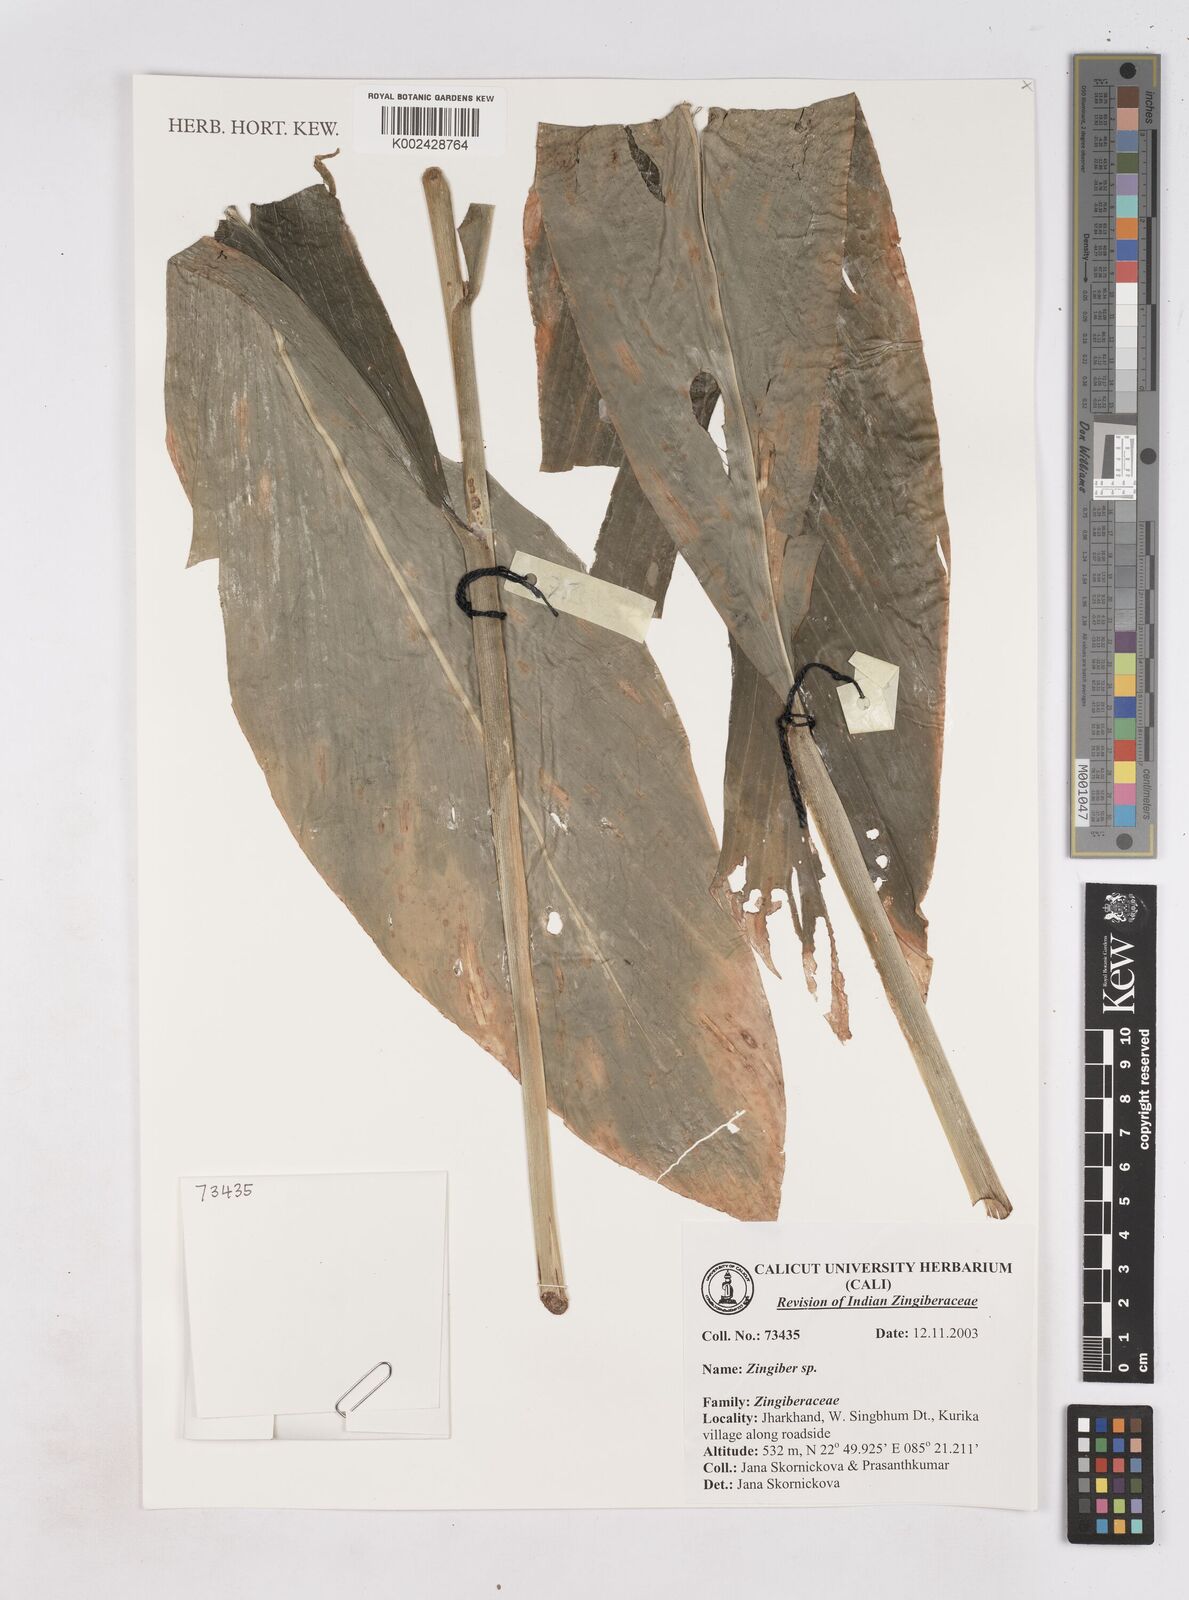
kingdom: Plantae
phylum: Tracheophyta
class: Liliopsida
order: Zingiberales
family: Zingiberaceae
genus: Zingiber
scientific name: Zingiber
